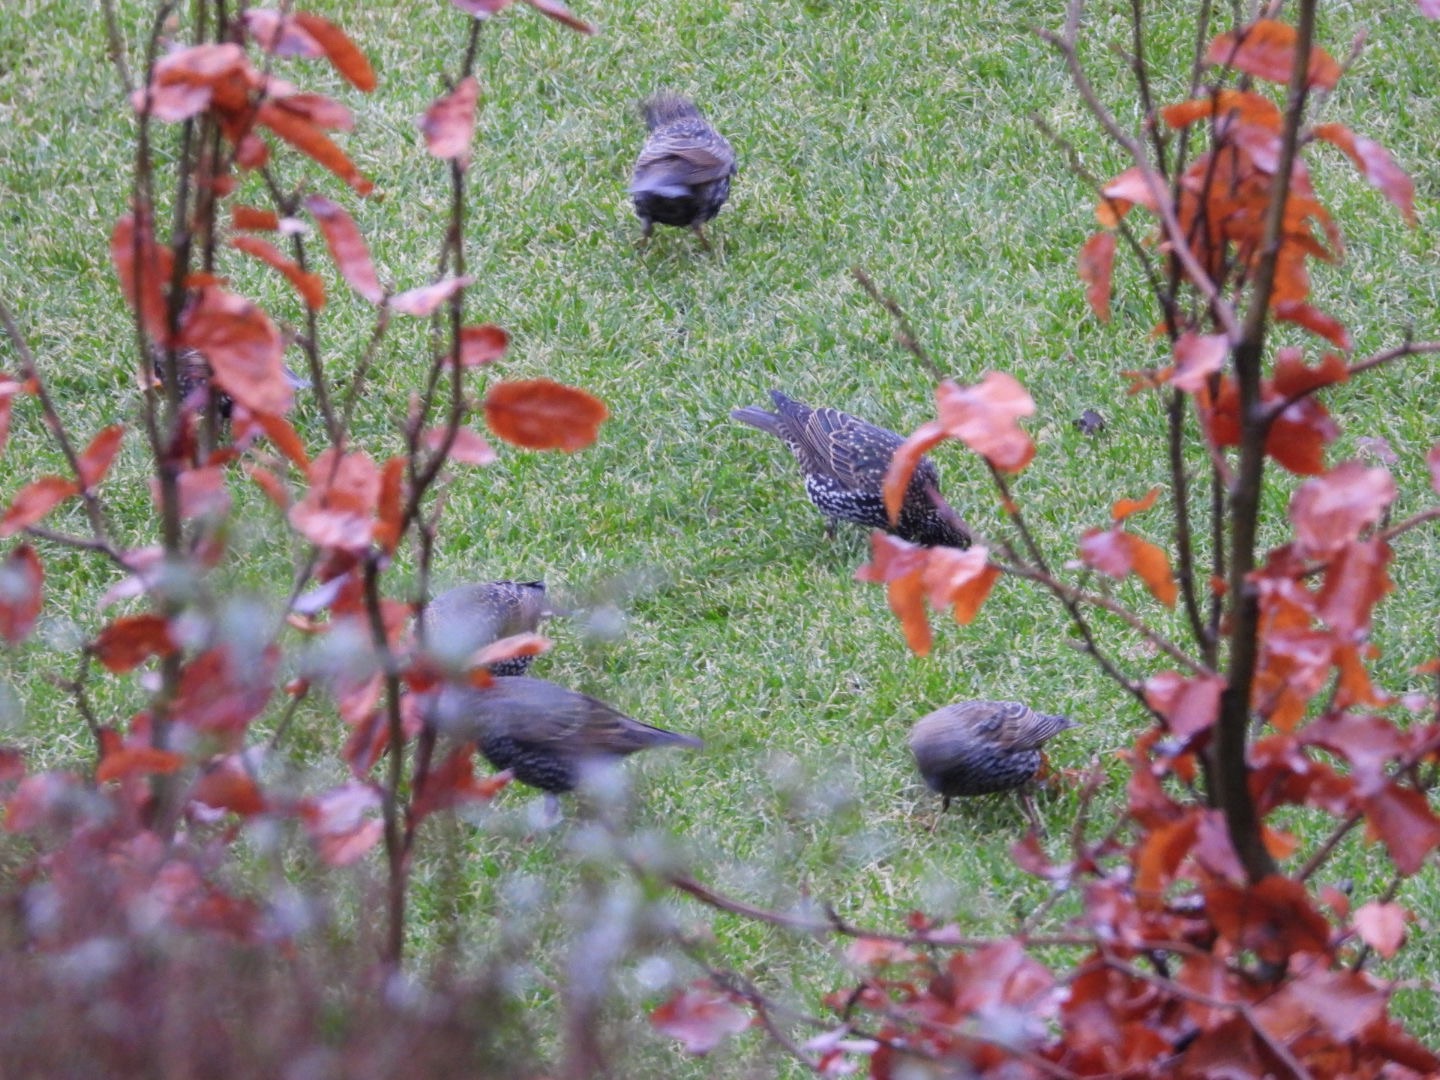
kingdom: Animalia
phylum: Chordata
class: Aves
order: Passeriformes
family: Sturnidae
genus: Sturnus
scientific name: Sturnus vulgaris
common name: Stær
